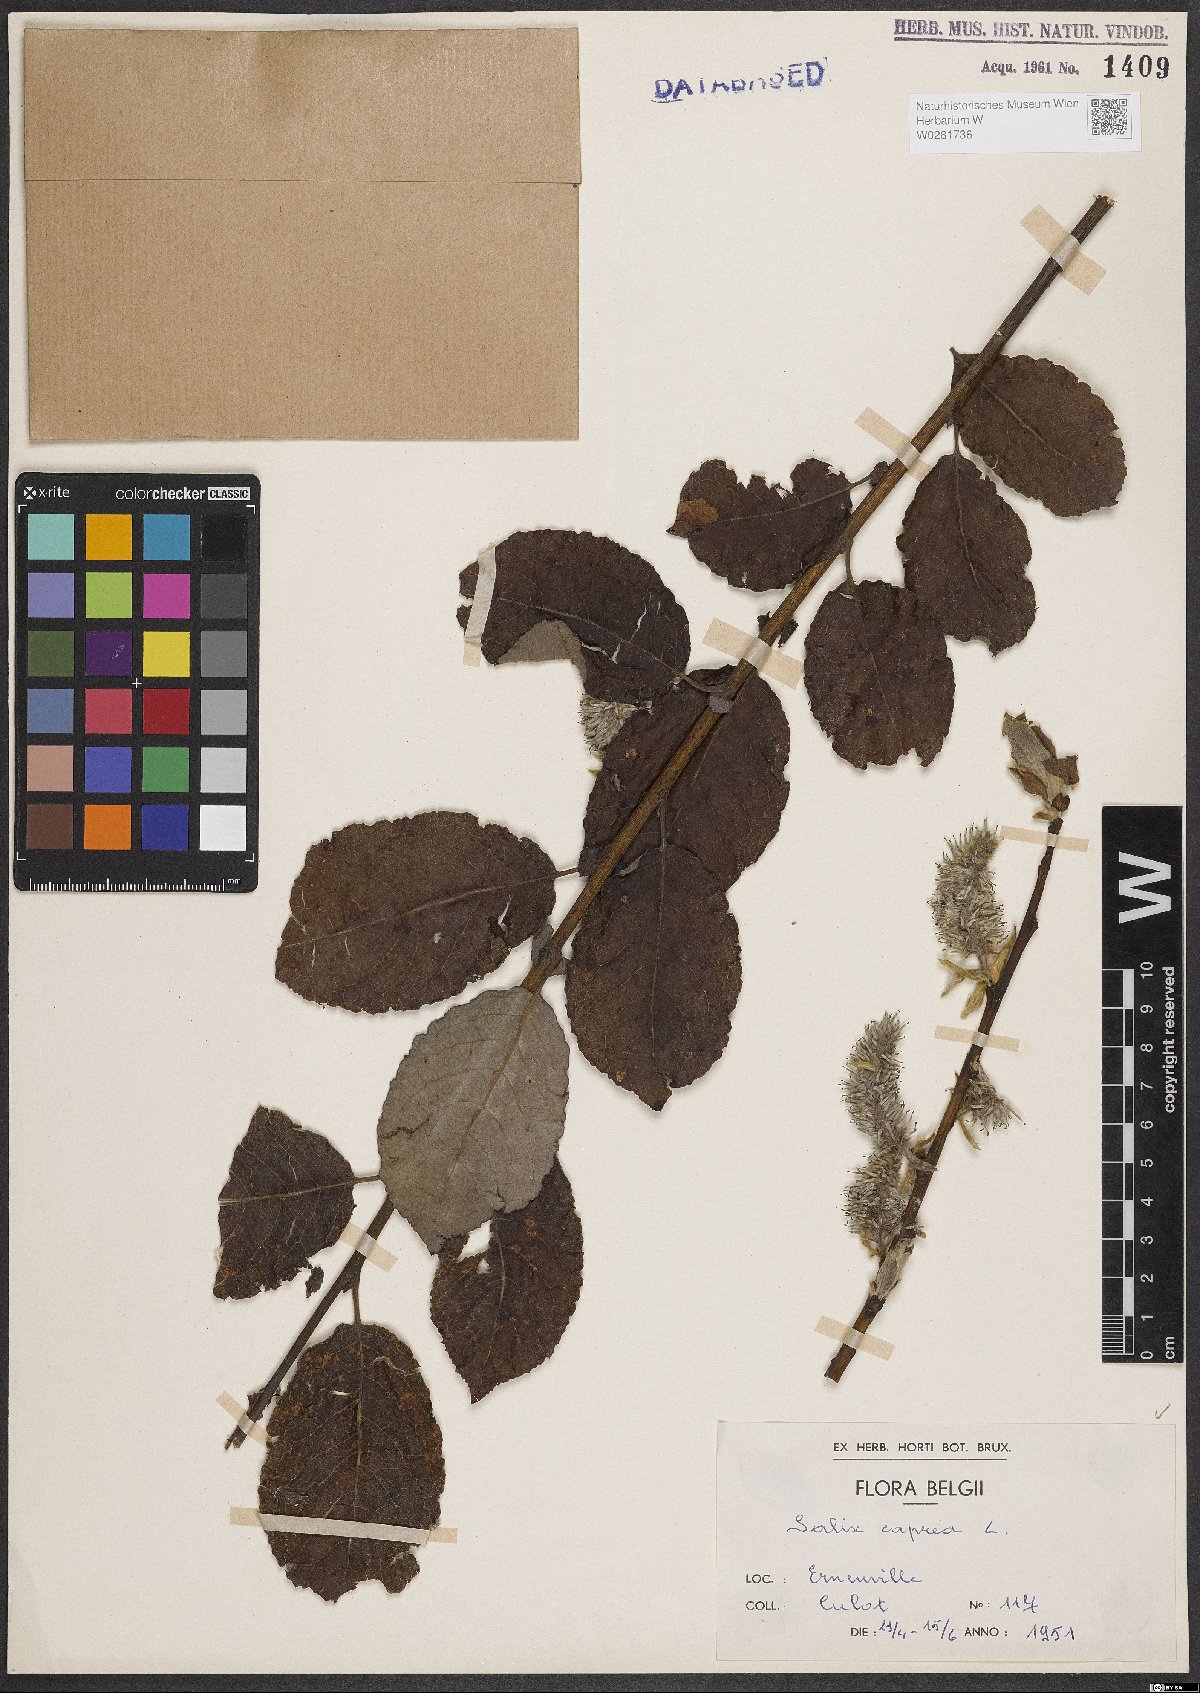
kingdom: Plantae
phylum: Tracheophyta
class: Magnoliopsida
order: Malpighiales
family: Salicaceae
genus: Salix
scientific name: Salix caprea
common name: Goat willow
